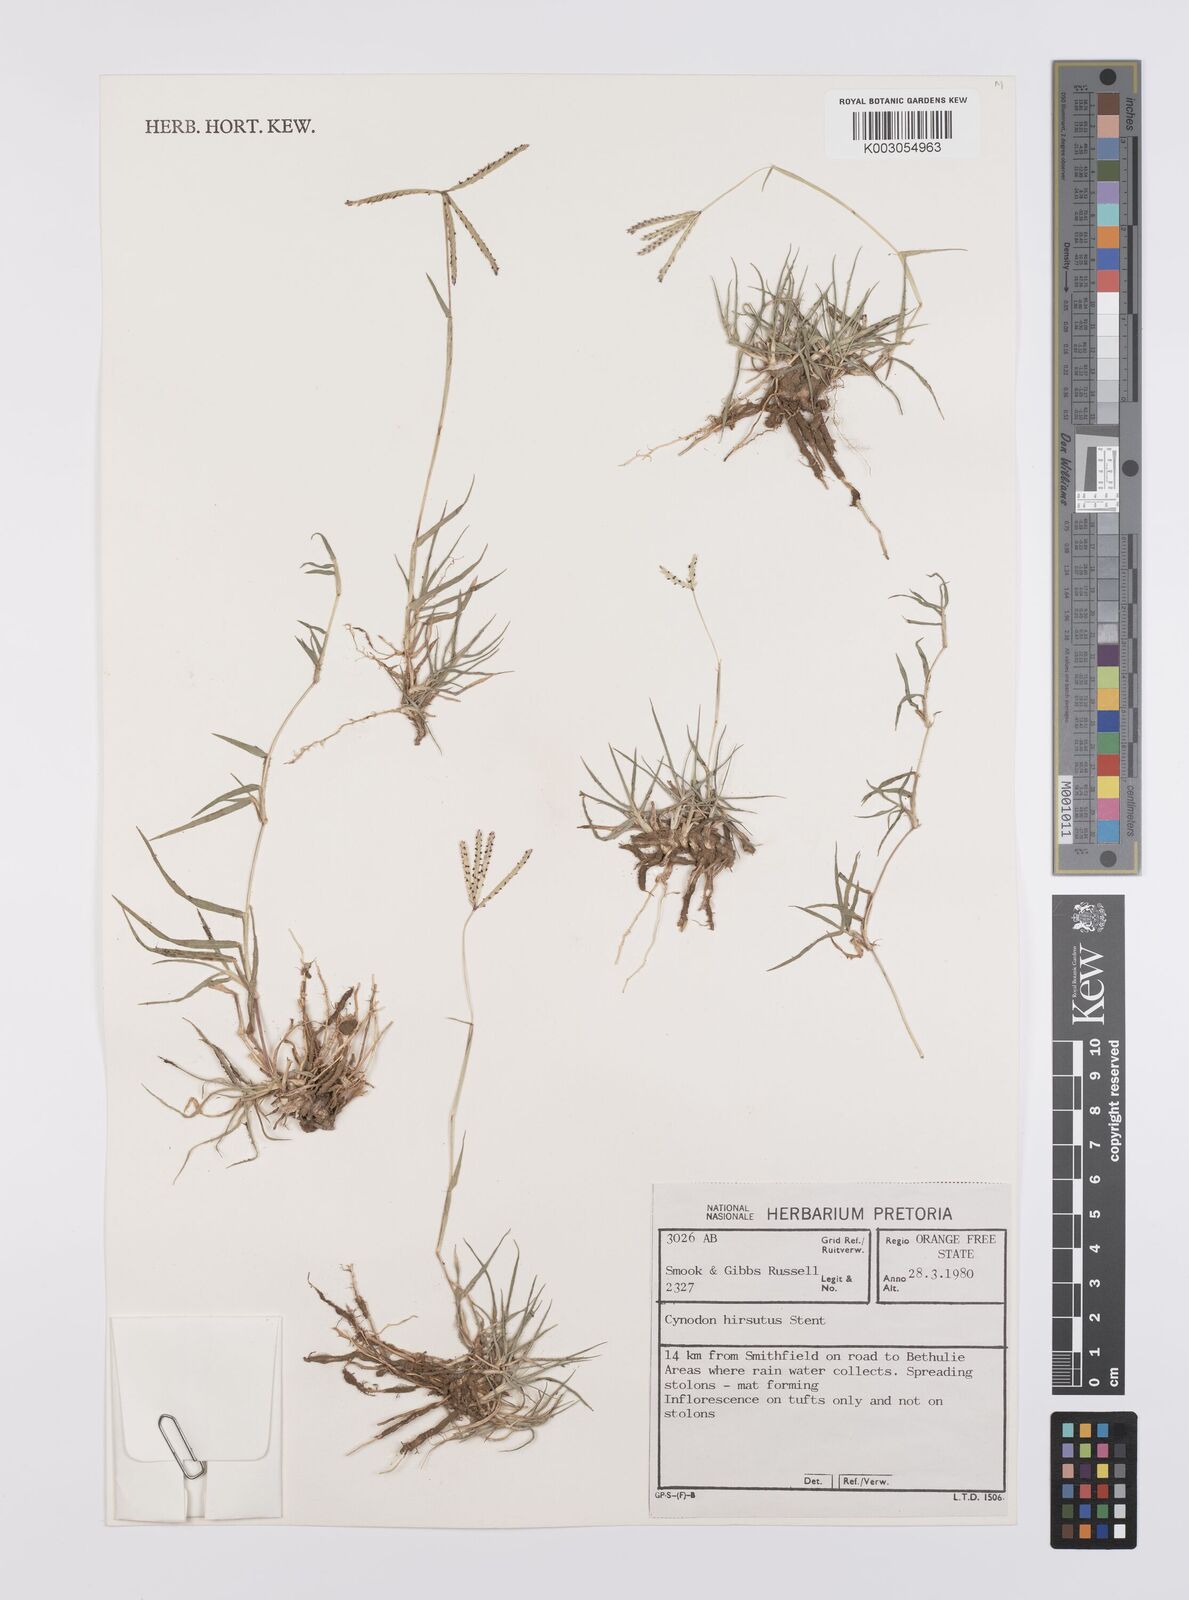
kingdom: Plantae
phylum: Tracheophyta
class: Liliopsida
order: Poales
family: Poaceae
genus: Cynodon
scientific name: Cynodon incompletus
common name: African bermuda-grass
